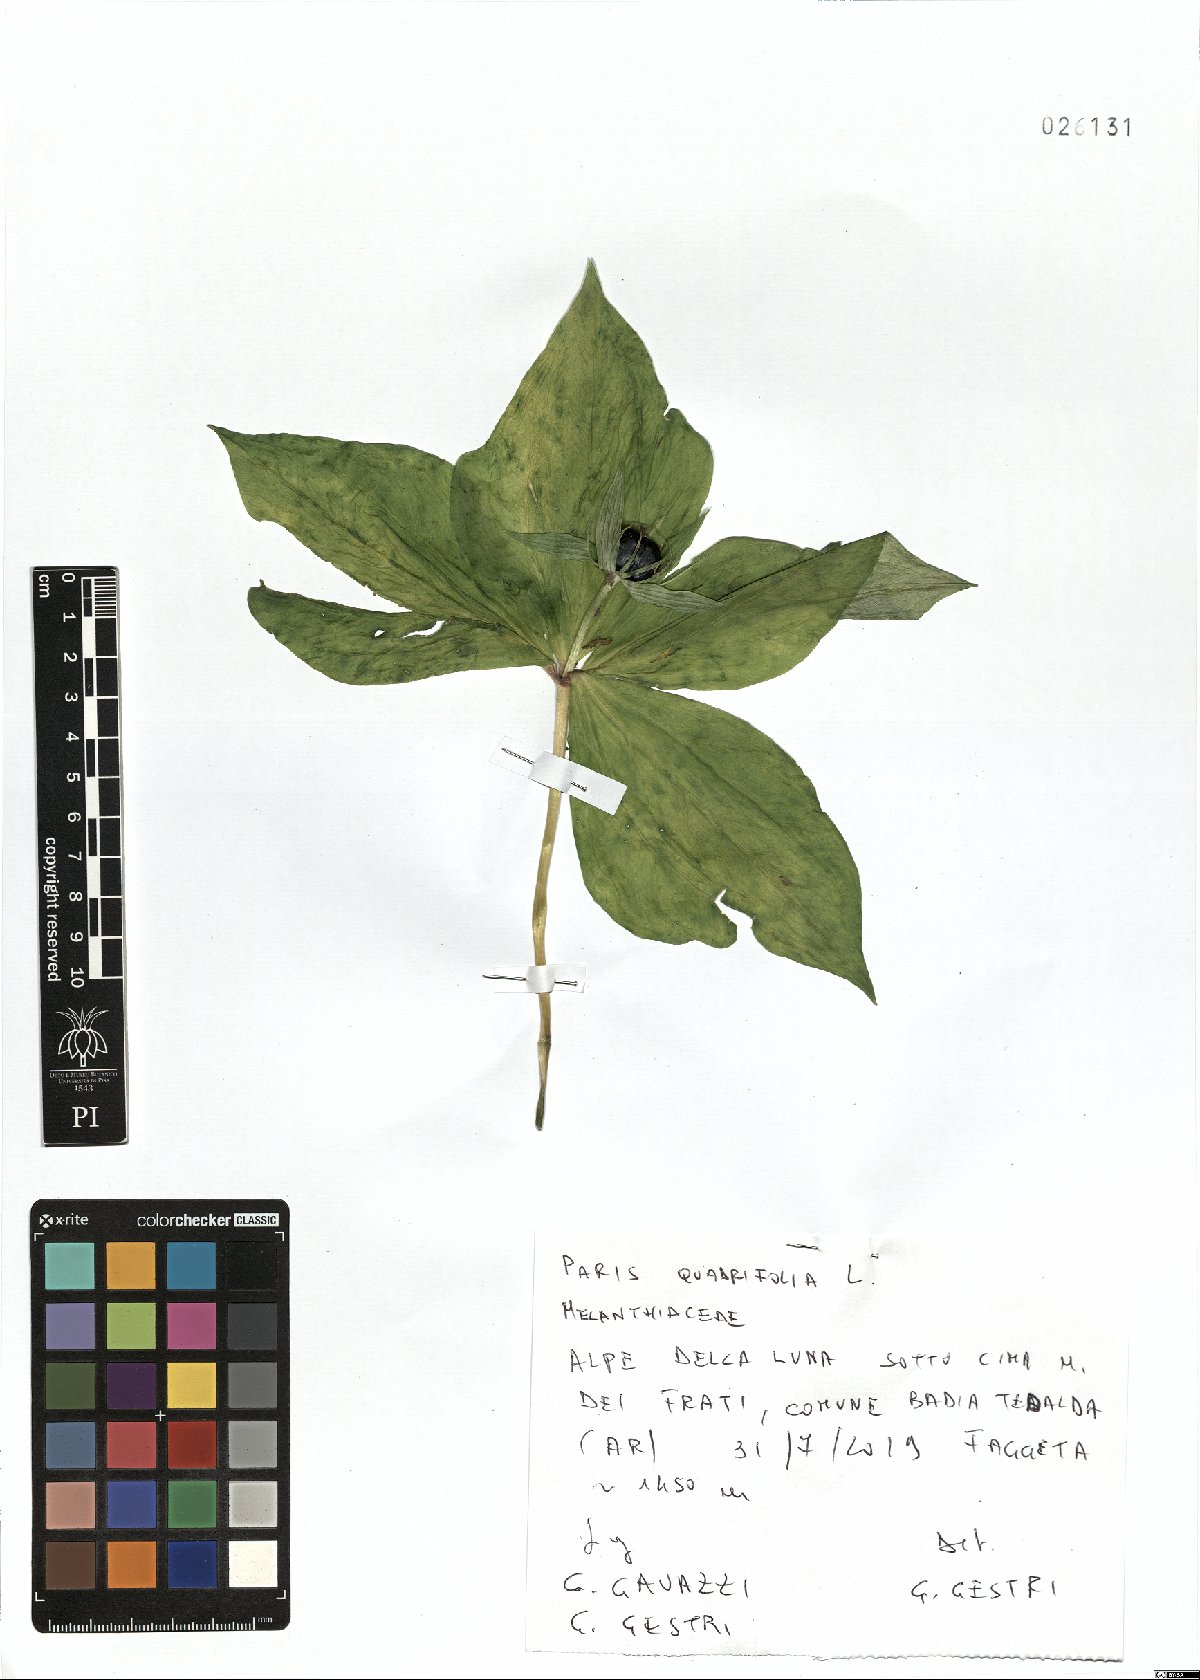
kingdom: Plantae
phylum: Tracheophyta
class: Liliopsida
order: Liliales
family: Melanthiaceae
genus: Paris
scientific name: Paris quadrifolia
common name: Herb-paris
